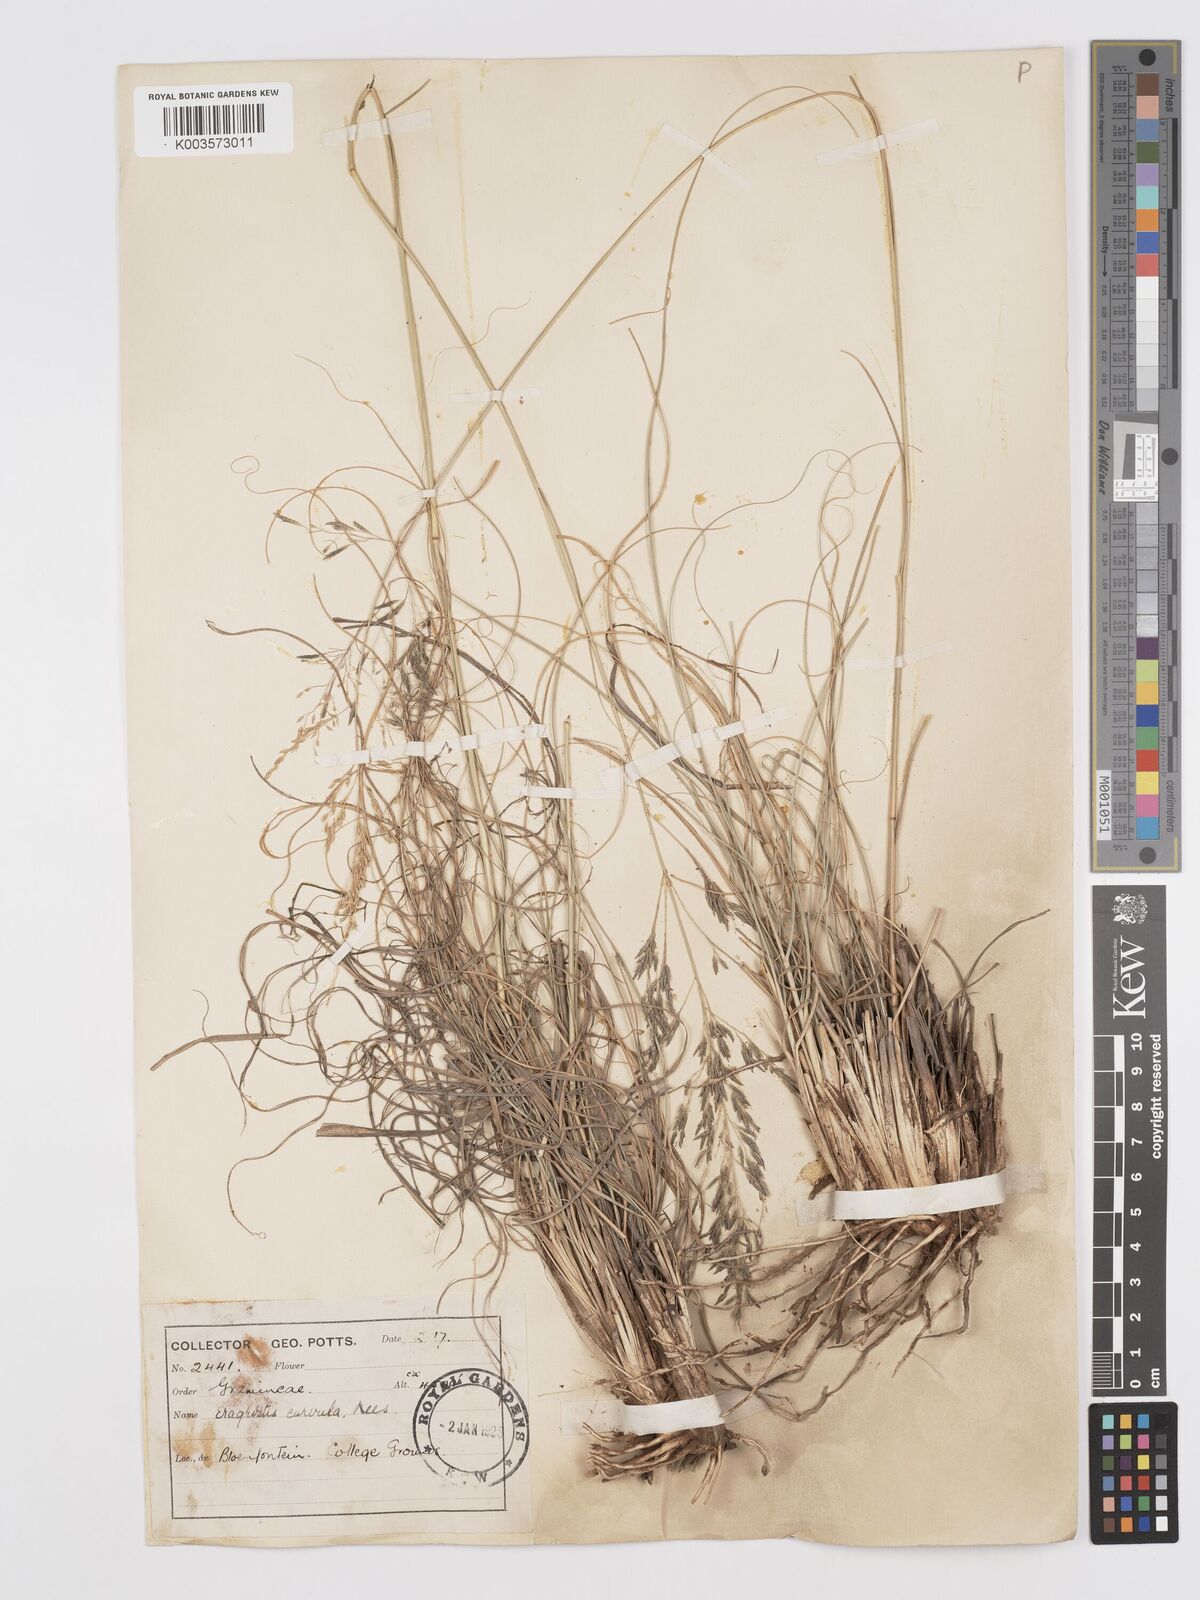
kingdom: Plantae
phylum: Tracheophyta
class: Liliopsida
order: Poales
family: Poaceae
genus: Eragrostis
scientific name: Eragrostis curvula
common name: African love-grass
